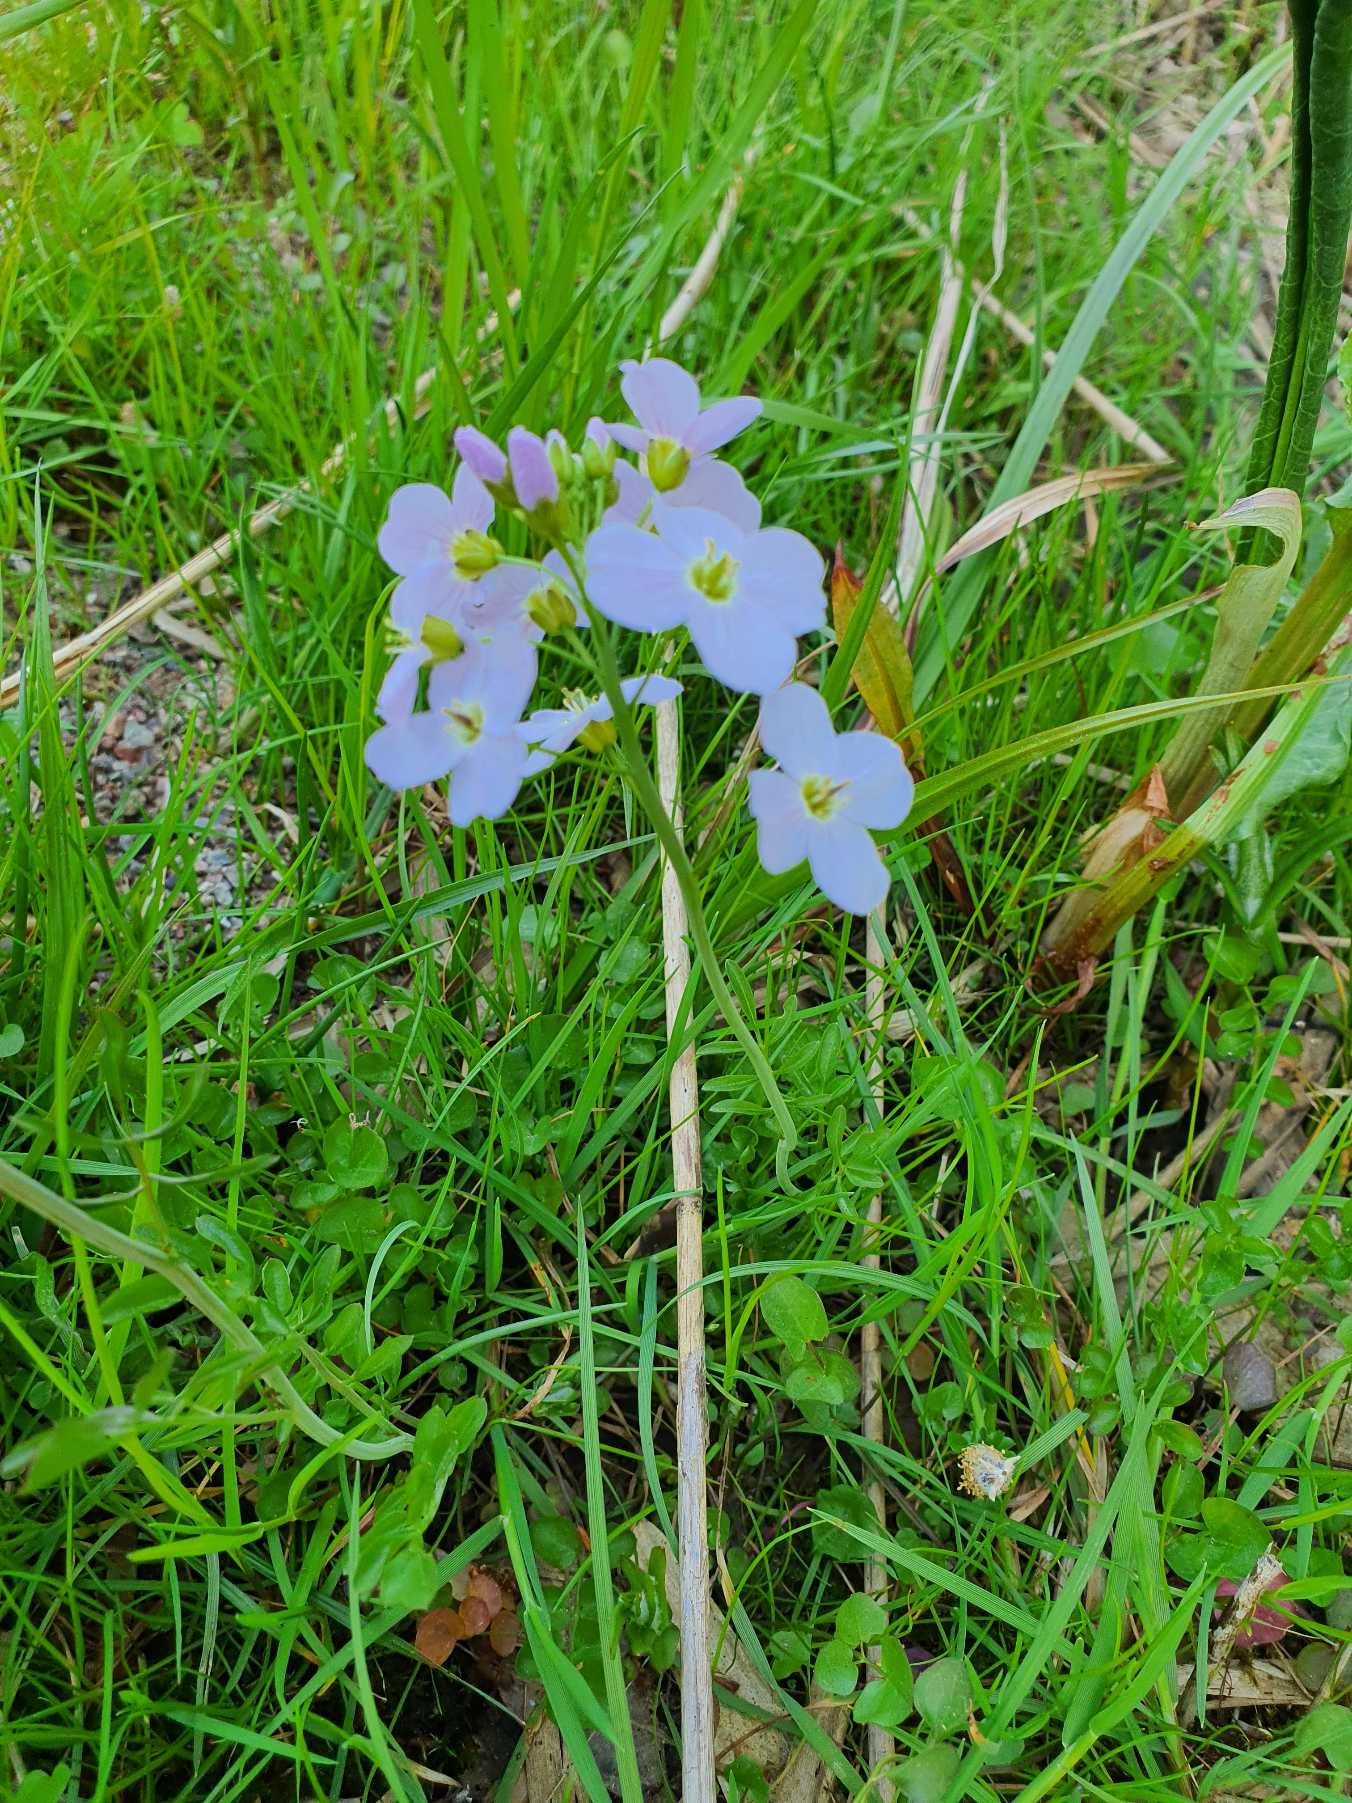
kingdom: Plantae
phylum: Tracheophyta
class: Magnoliopsida
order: Brassicales
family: Brassicaceae
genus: Cardamine
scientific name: Cardamine pratensis
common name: Engkarse
